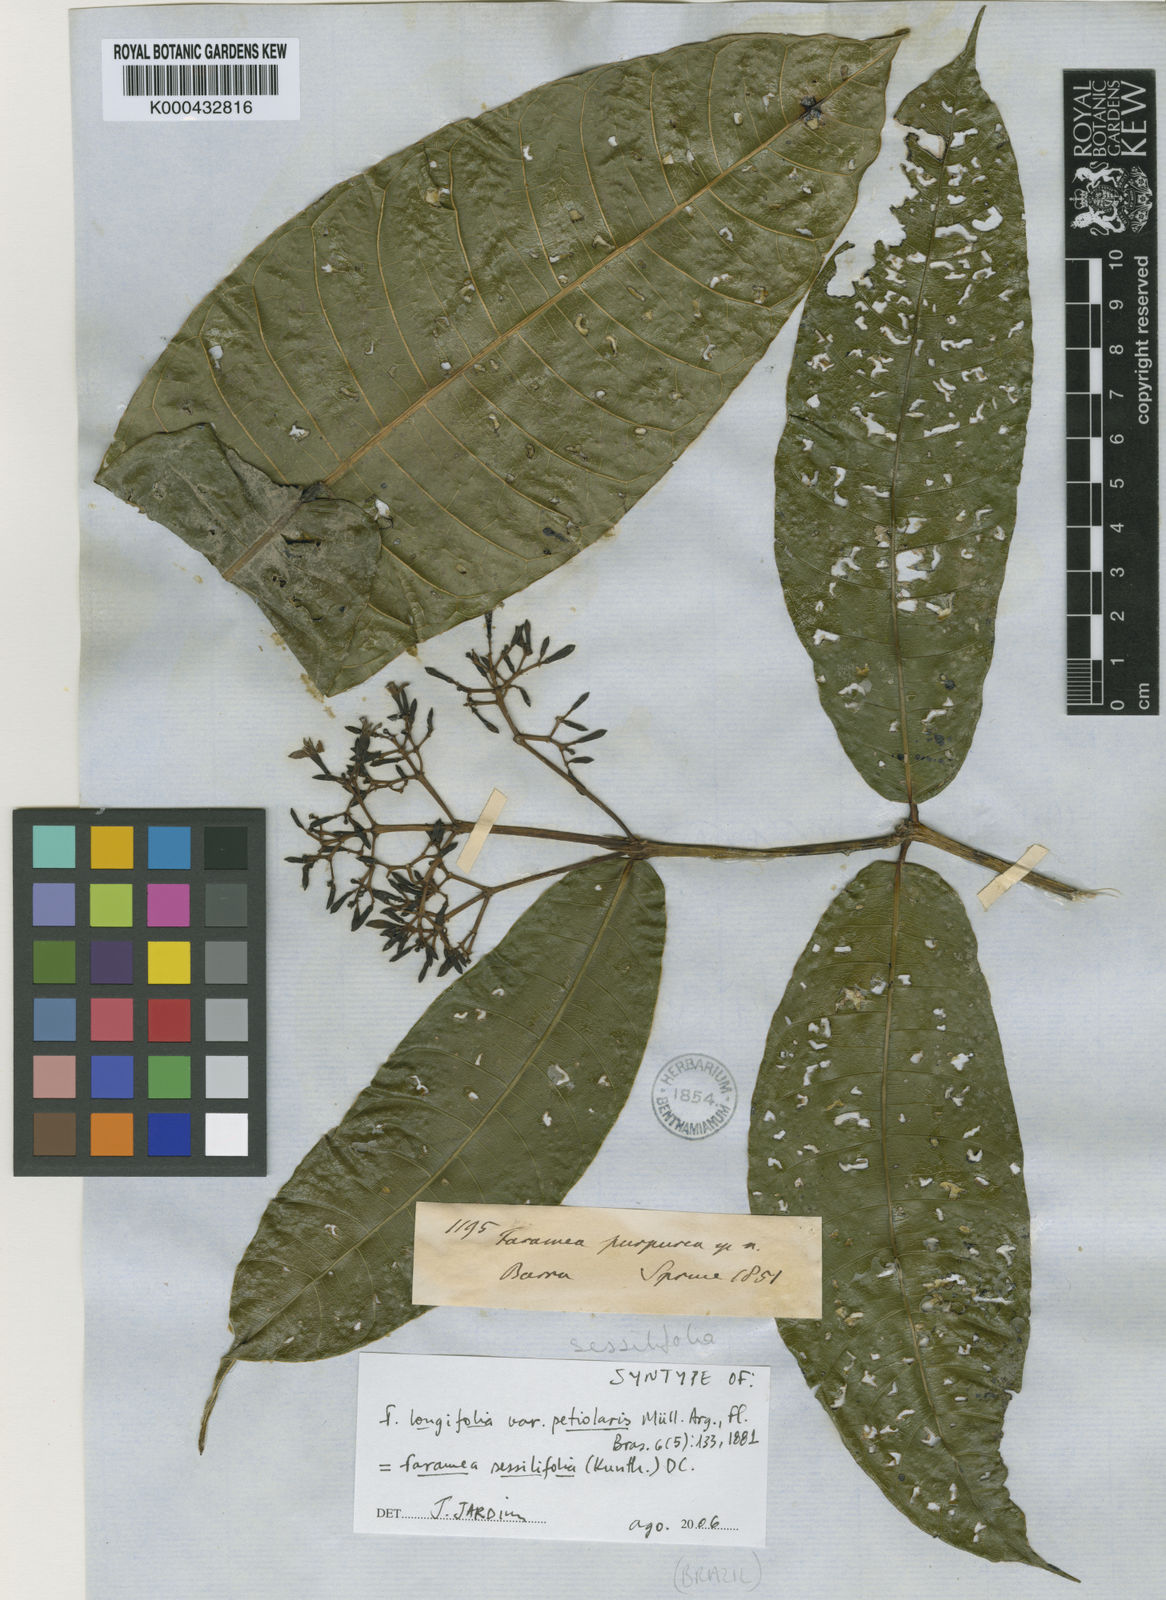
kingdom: Plantae
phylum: Tracheophyta
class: Magnoliopsida
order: Gentianales
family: Rubiaceae
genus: Faramea
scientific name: Faramea sessilifolia
